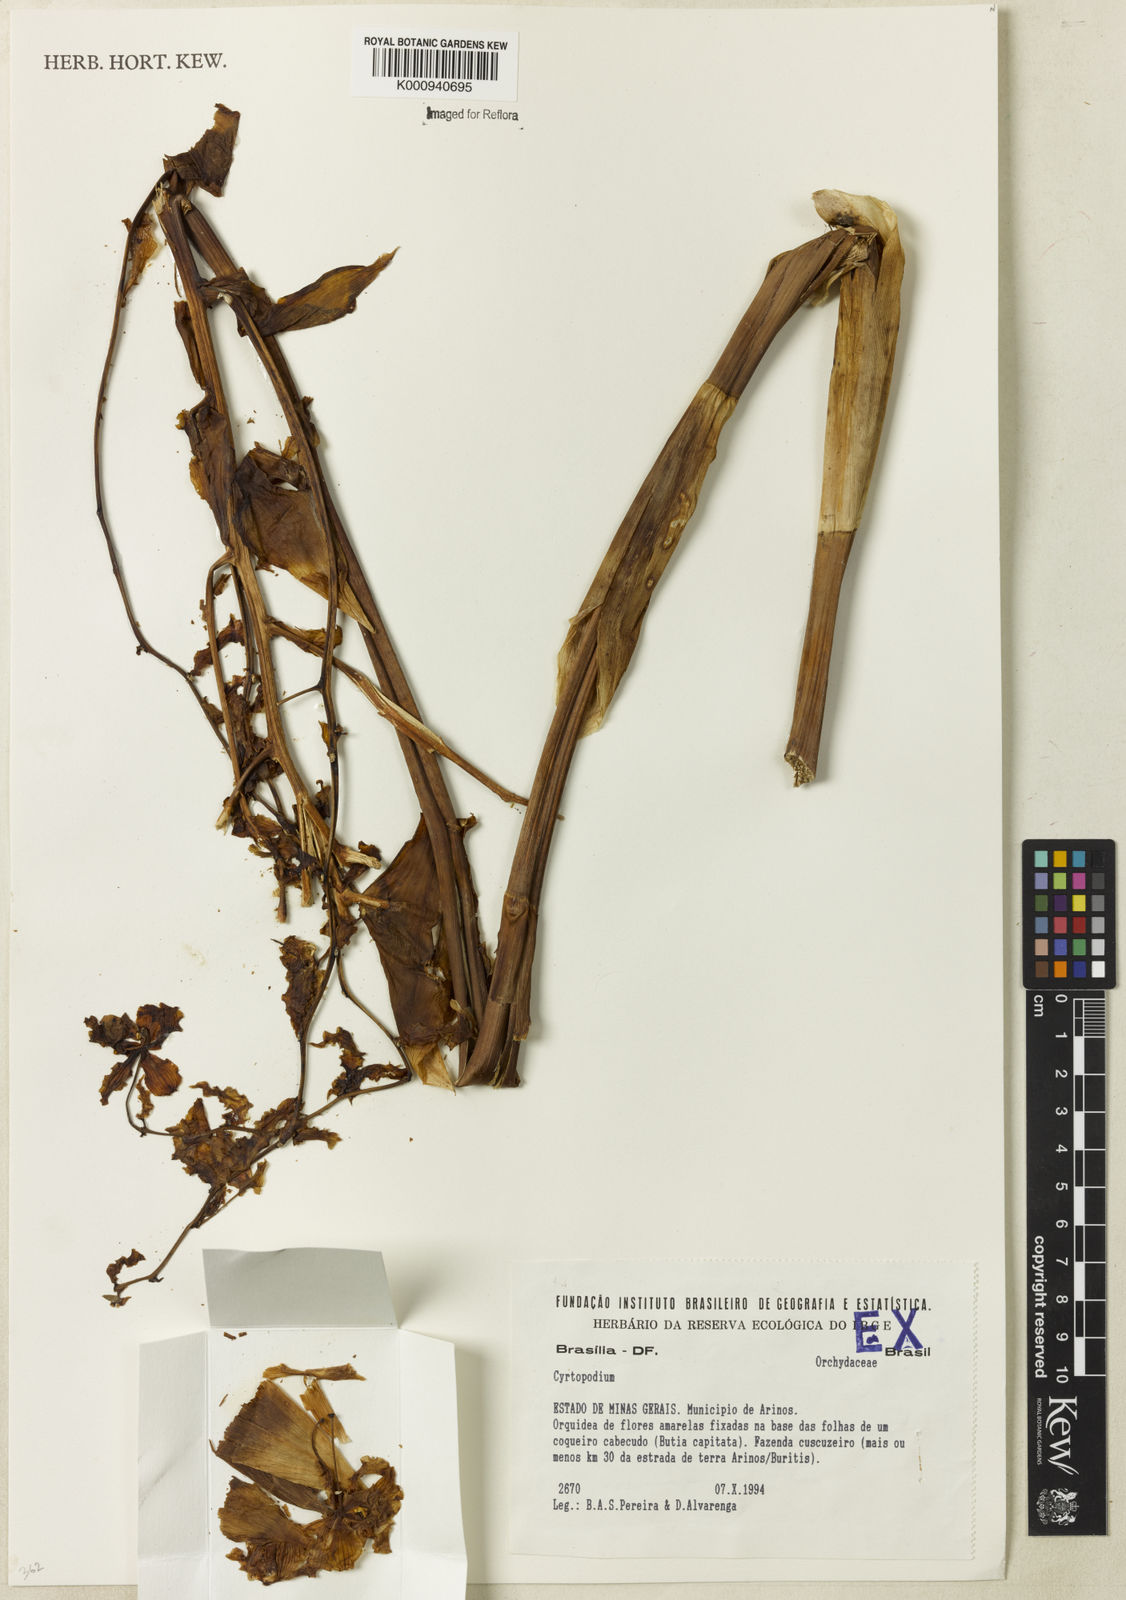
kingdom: Plantae
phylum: Tracheophyta
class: Liliopsida
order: Asparagales
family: Orchidaceae
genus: Cyrtopodium
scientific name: Cyrtopodium
